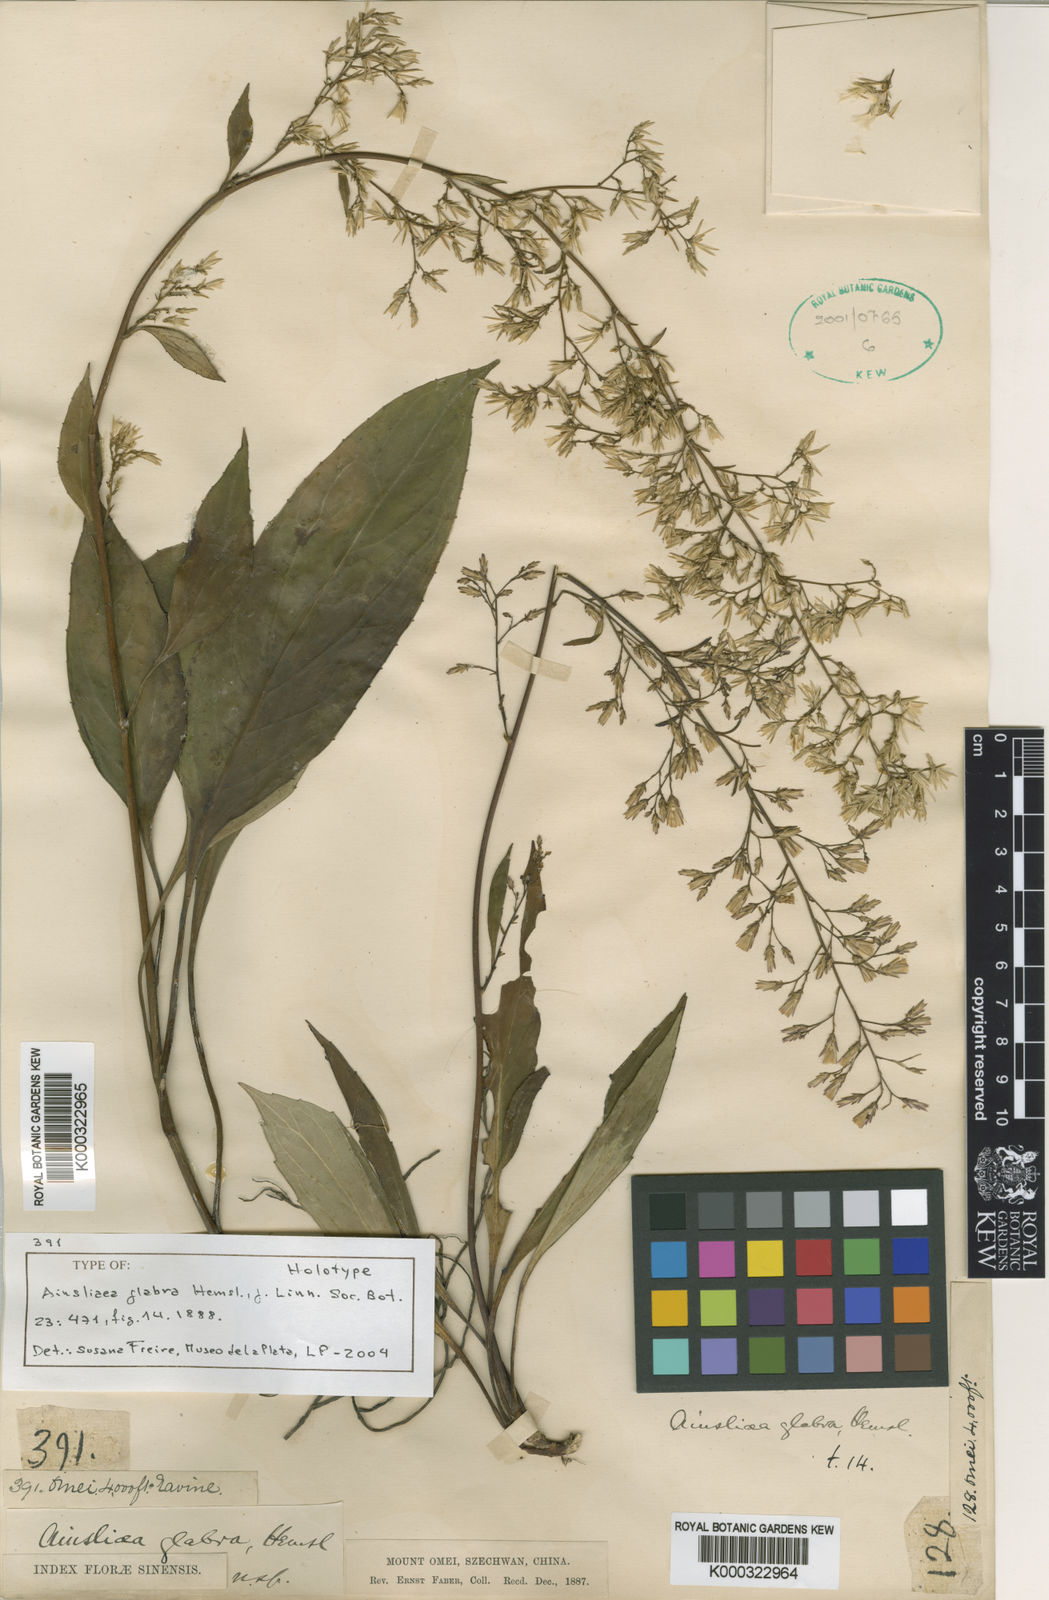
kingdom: Plantae
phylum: Tracheophyta
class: Magnoliopsida
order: Asterales
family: Asteraceae
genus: Ainsliaea
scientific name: Ainsliaea glabra
